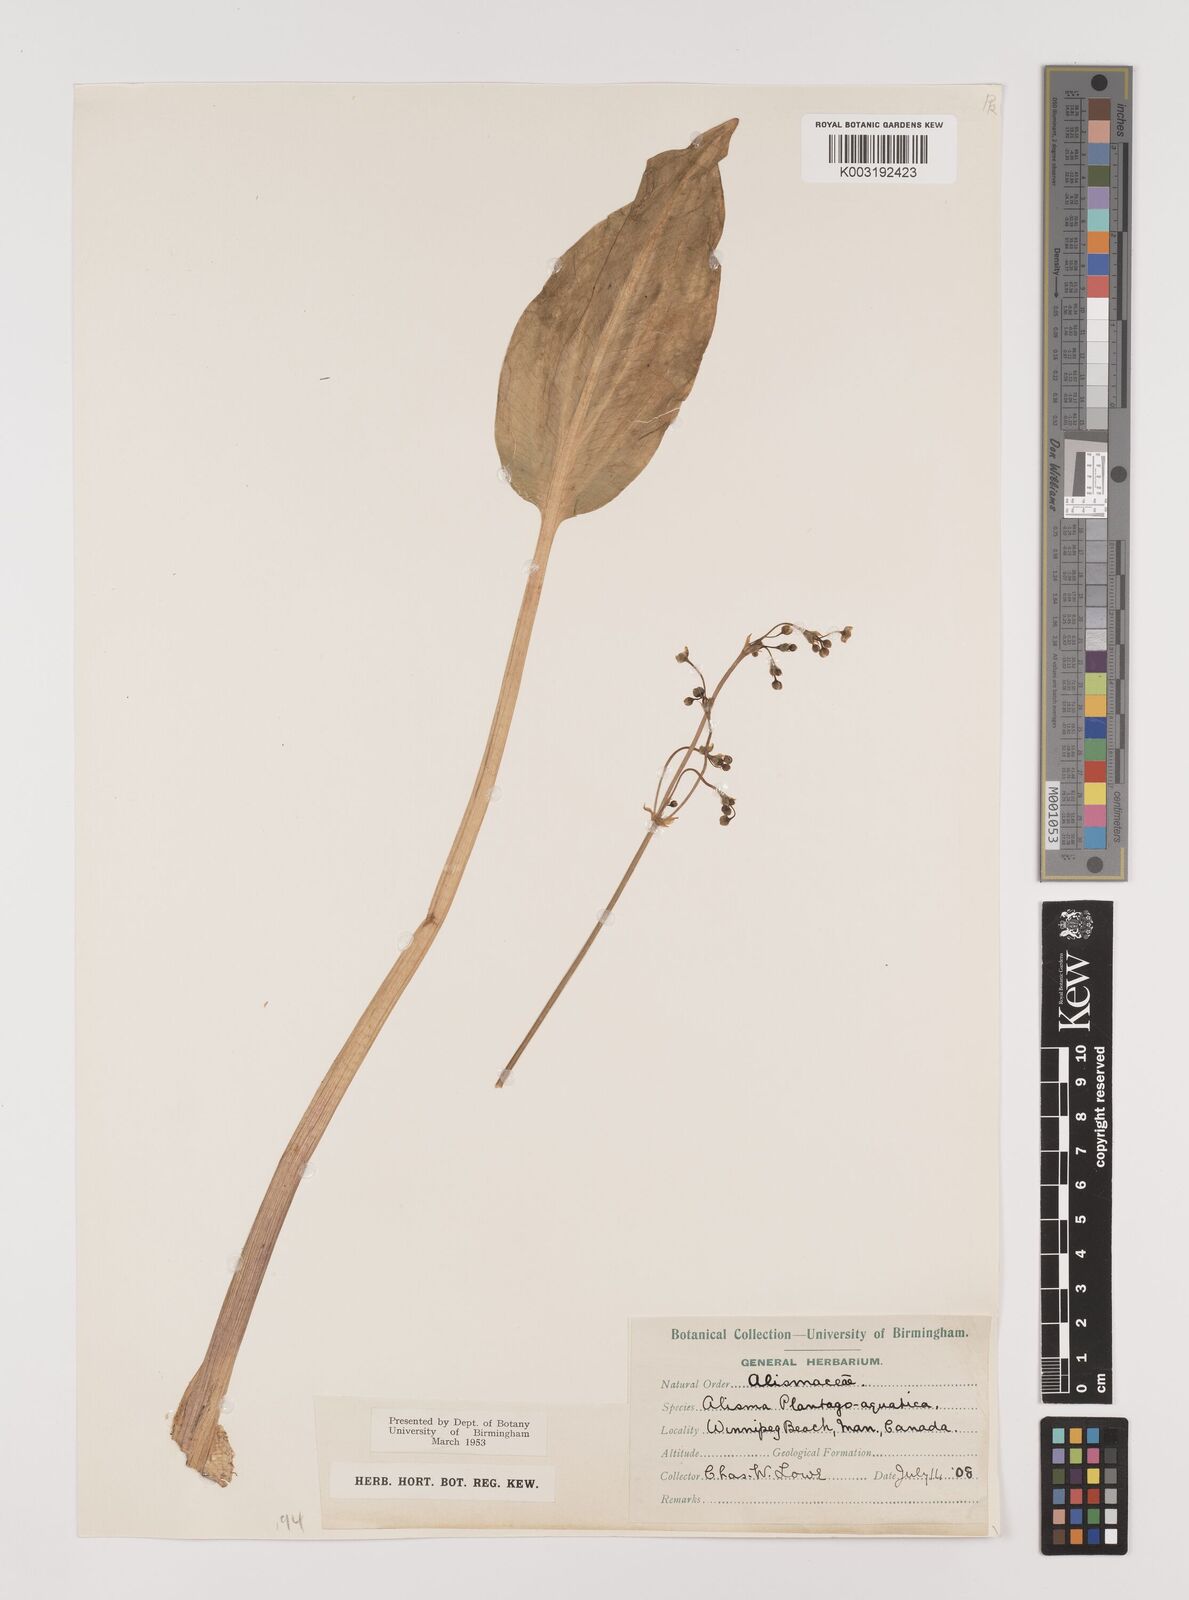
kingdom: Plantae
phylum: Tracheophyta
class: Liliopsida
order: Alismatales
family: Alismataceae
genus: Alisma
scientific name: Alisma triviale
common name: Northern water-plantain
